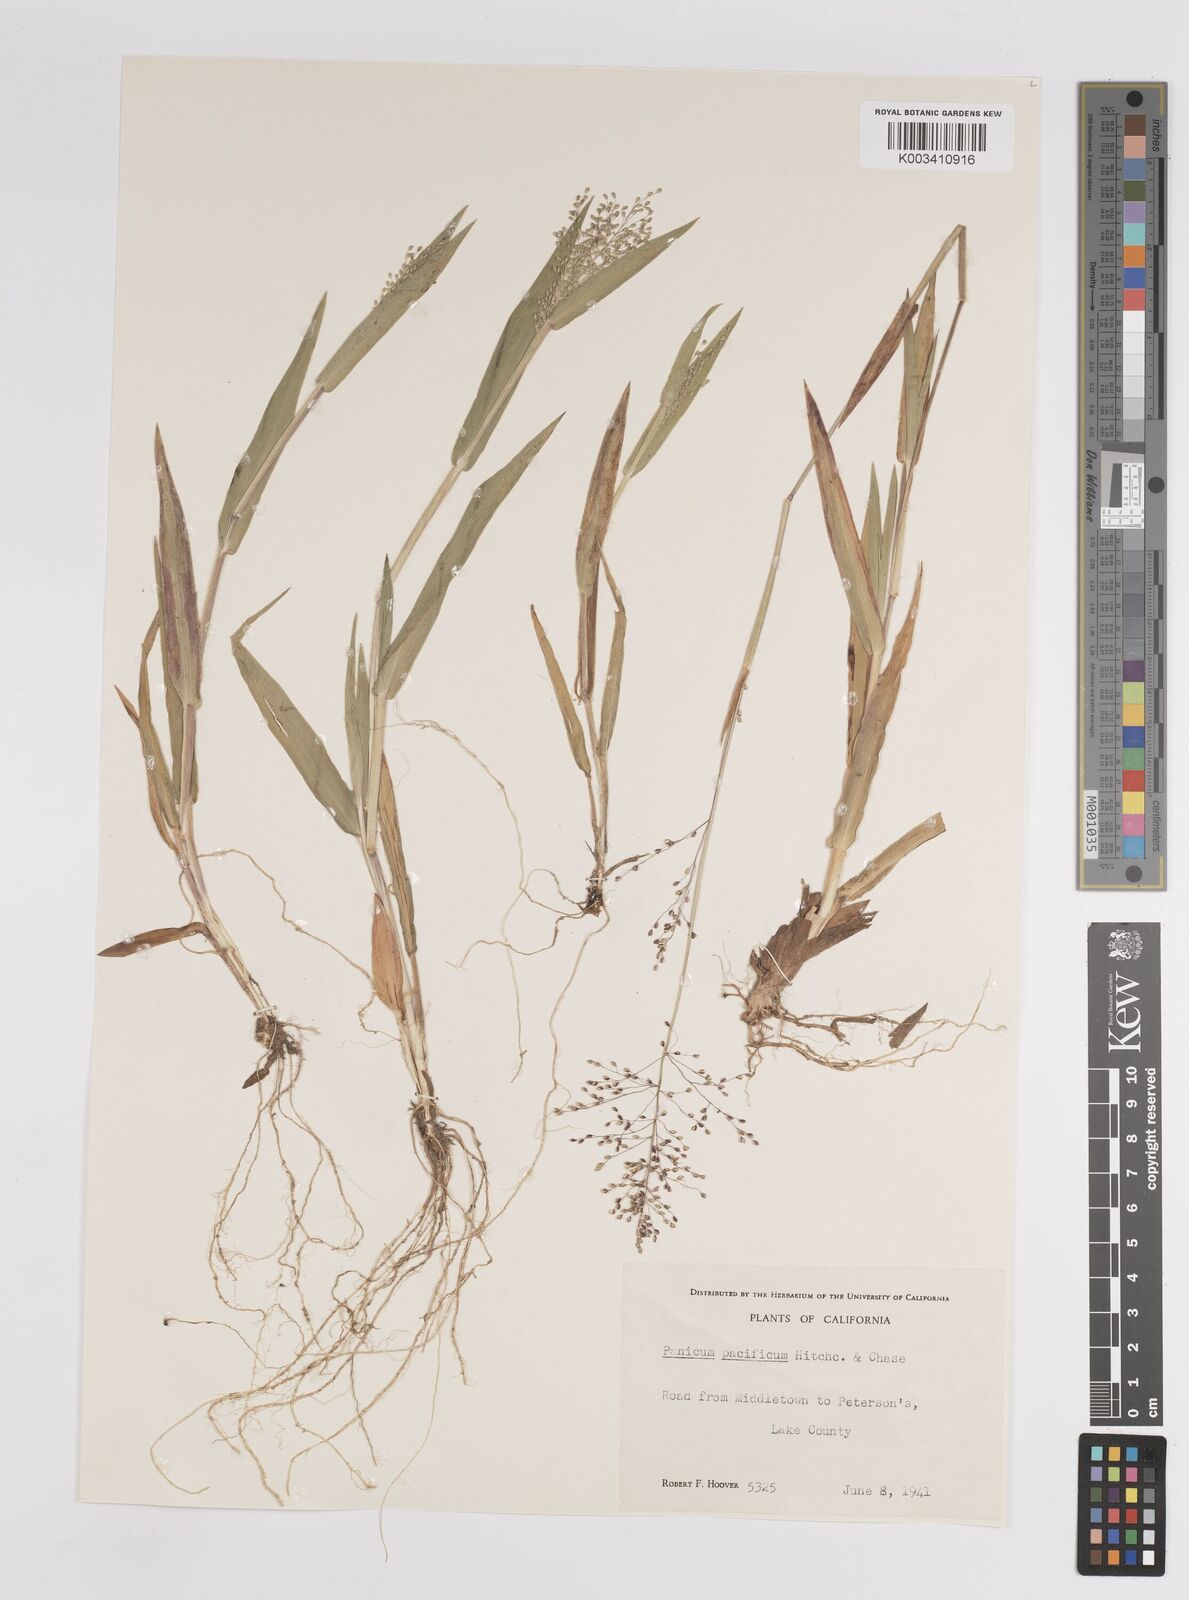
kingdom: Plantae
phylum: Tracheophyta
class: Liliopsida
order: Poales
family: Poaceae
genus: Dichanthelium
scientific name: Dichanthelium implicatum
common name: Slender-stemmed panicgrass
